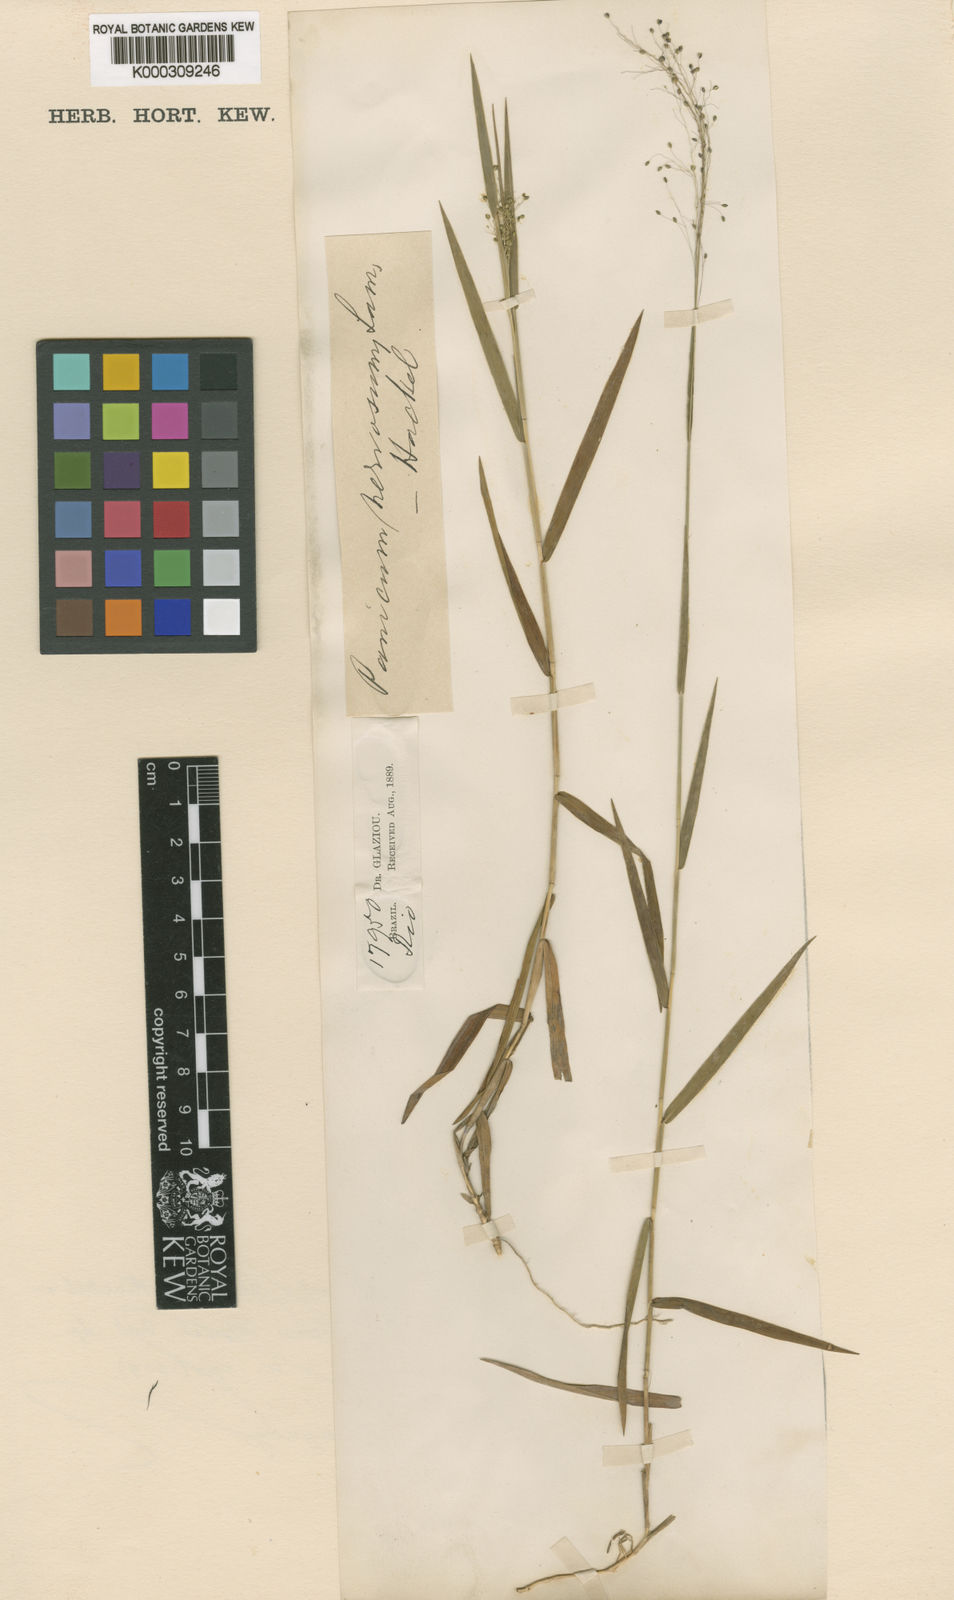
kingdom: Plantae
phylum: Tracheophyta
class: Liliopsida
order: Poales
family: Poaceae
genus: Trichanthecium
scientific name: Trichanthecium cyanescens
